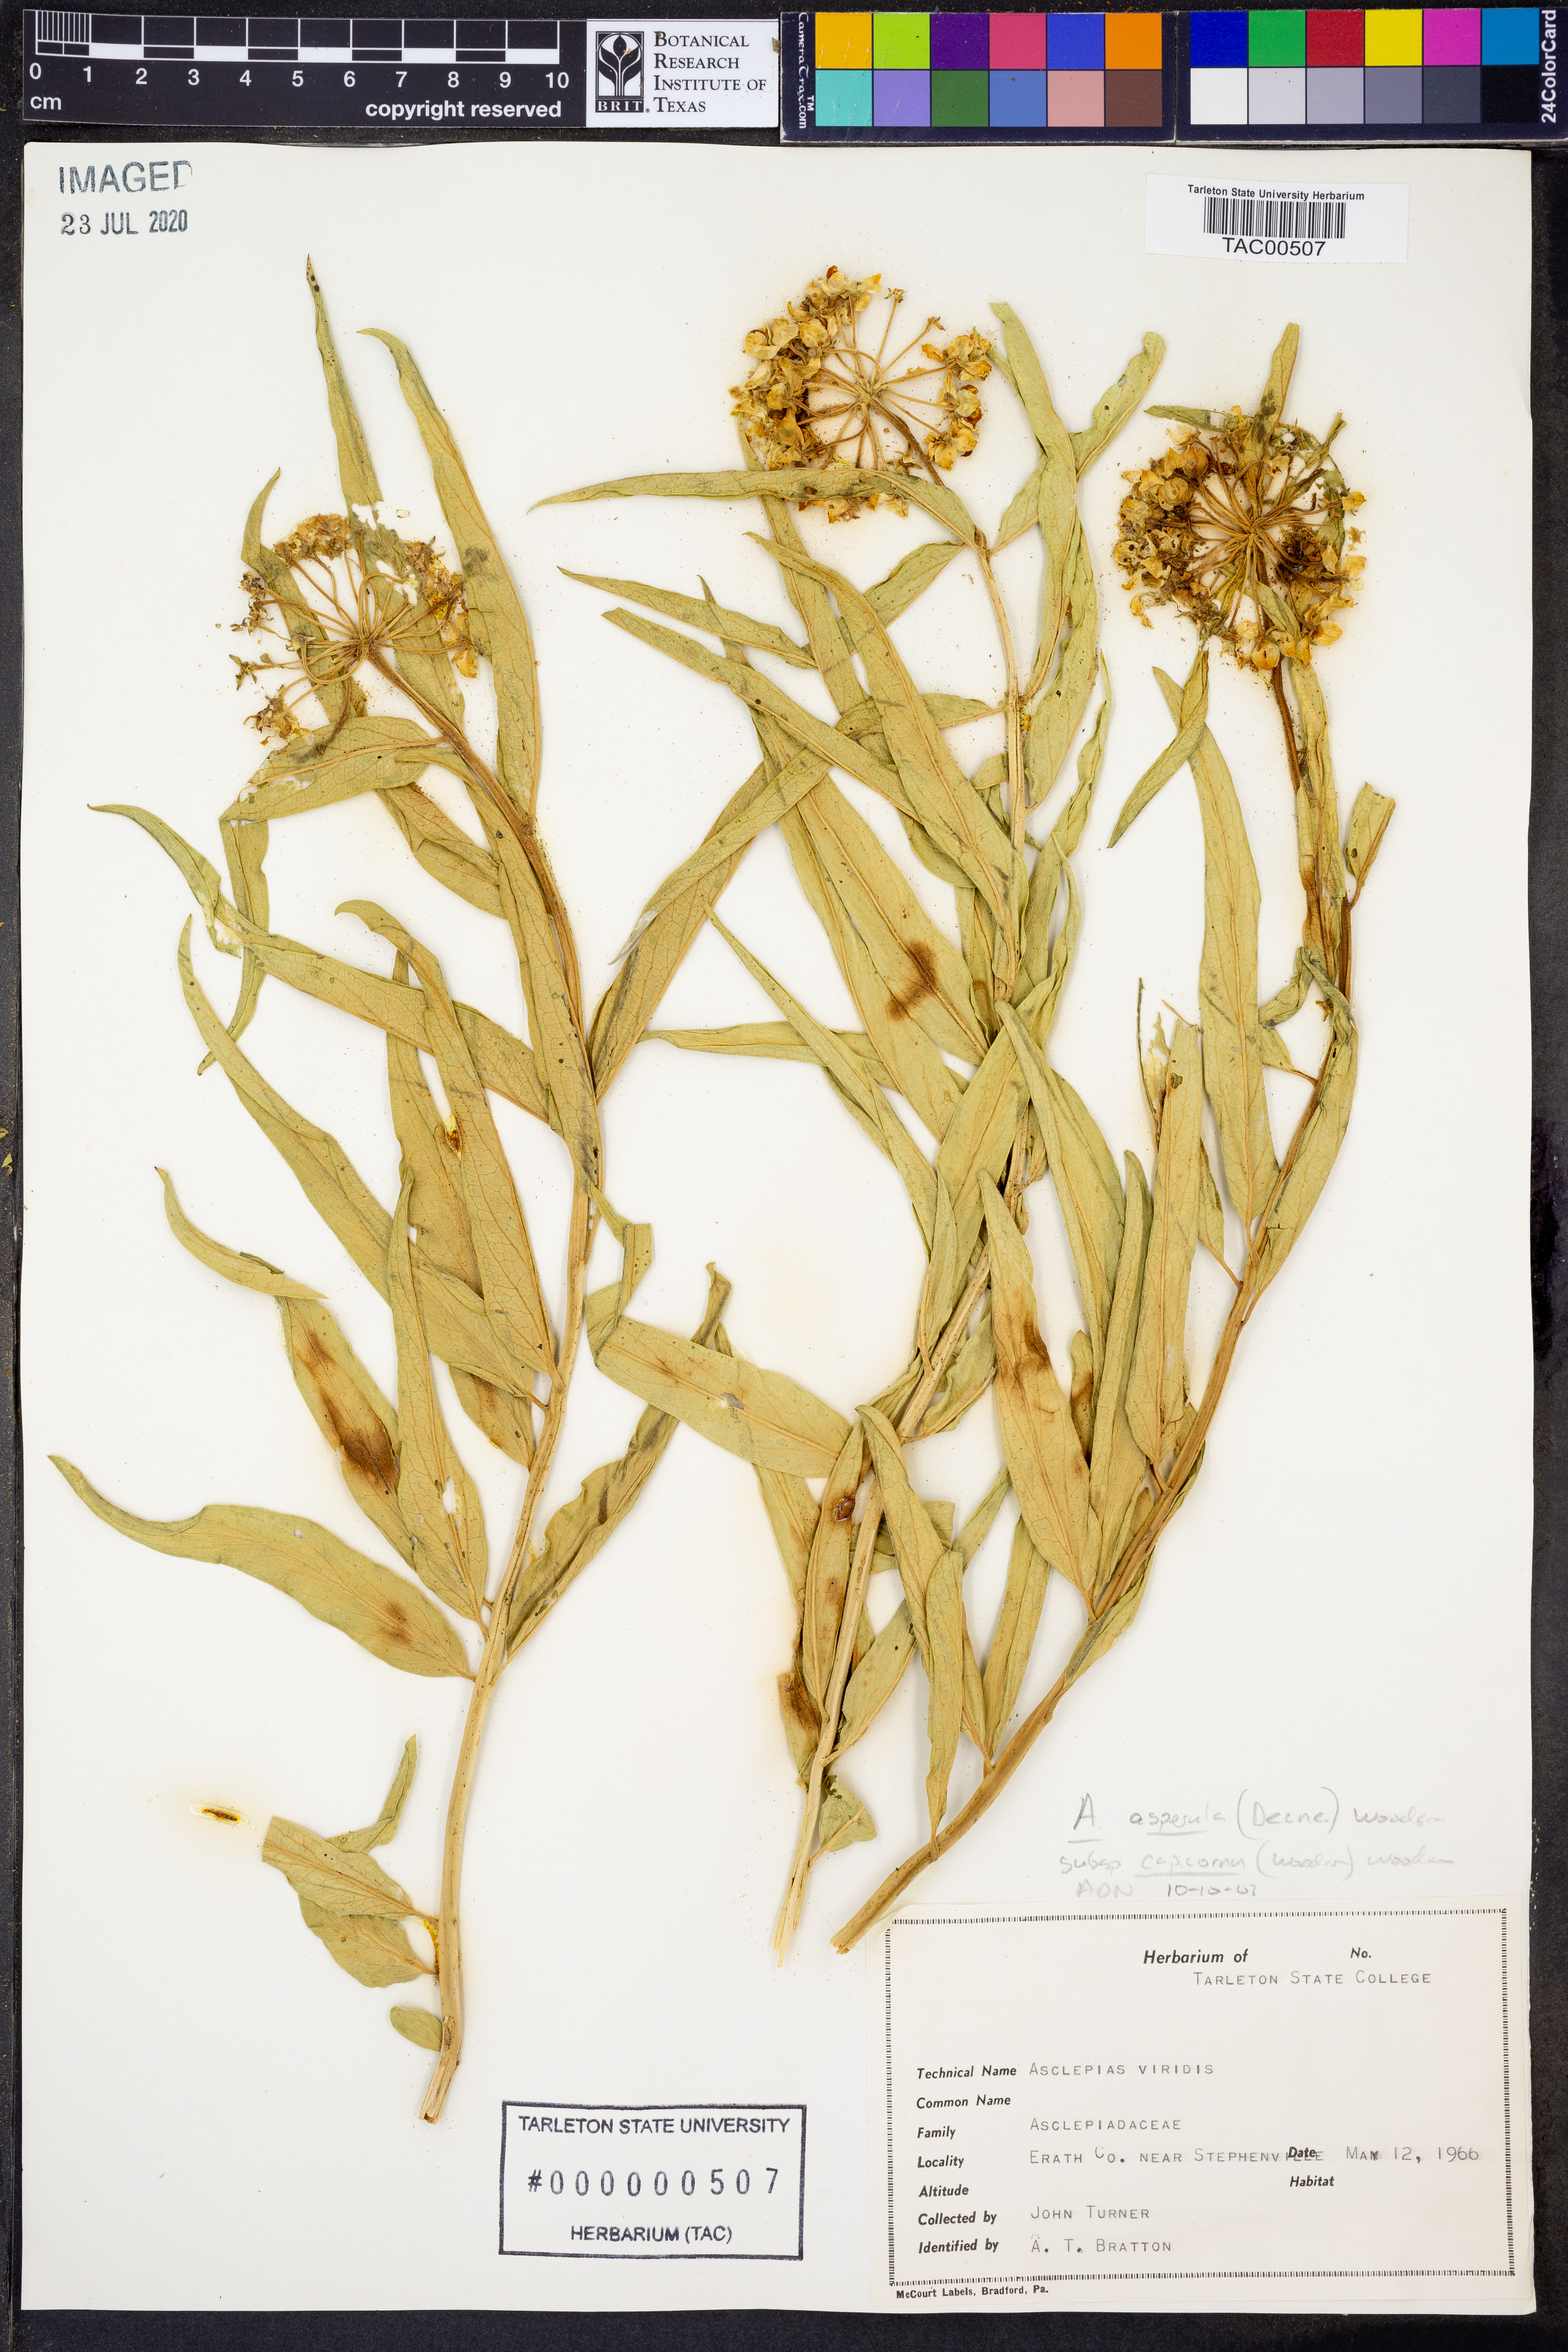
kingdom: Plantae
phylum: Tracheophyta
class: Magnoliopsida
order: Gentianales
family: Apocynaceae
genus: Asclepias
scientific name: Asclepias asperula
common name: Antelope horns
